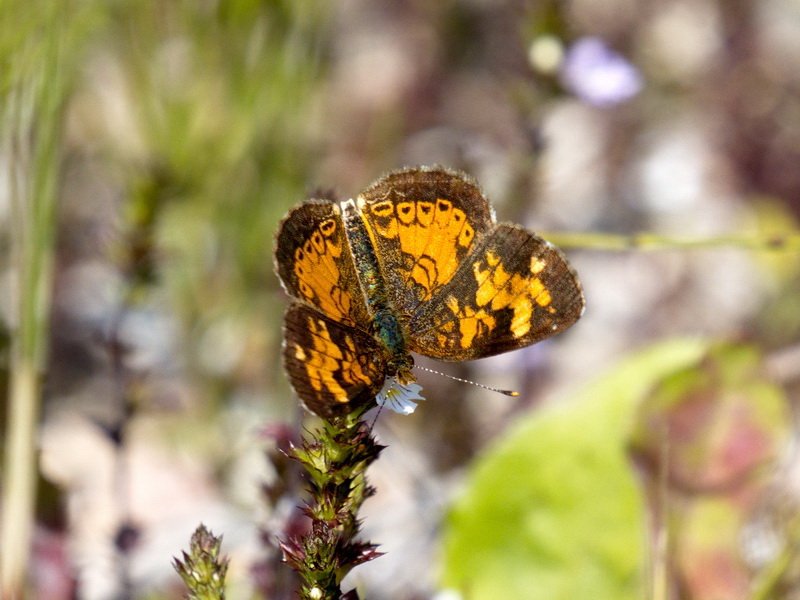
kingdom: Animalia
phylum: Arthropoda
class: Insecta
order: Lepidoptera
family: Nymphalidae
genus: Phyciodes
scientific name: Phyciodes tharos
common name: Northern Crescent
